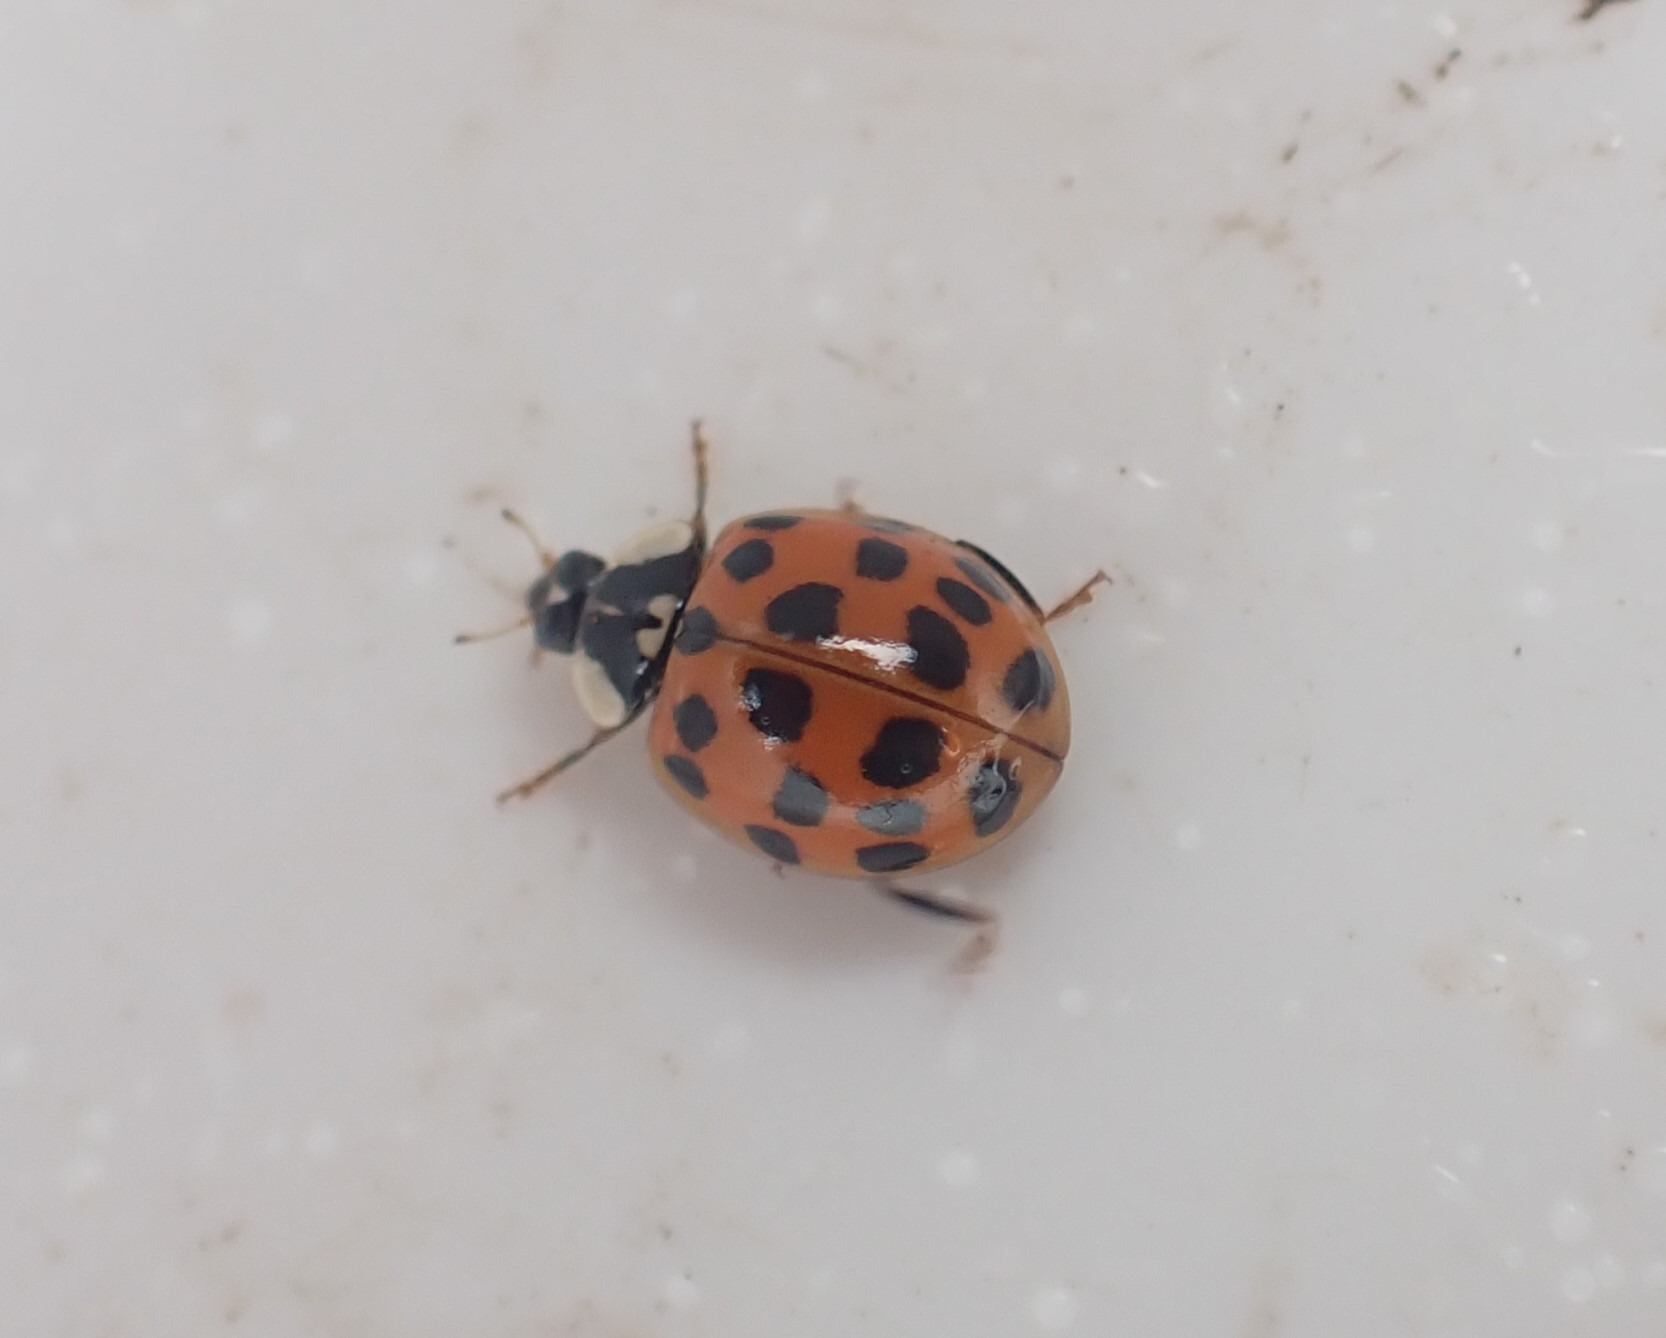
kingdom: Animalia
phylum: Arthropoda
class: Insecta
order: Coleoptera
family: Coccinellidae
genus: Harmonia
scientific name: Harmonia axyridis
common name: Harlekinmariehøne
